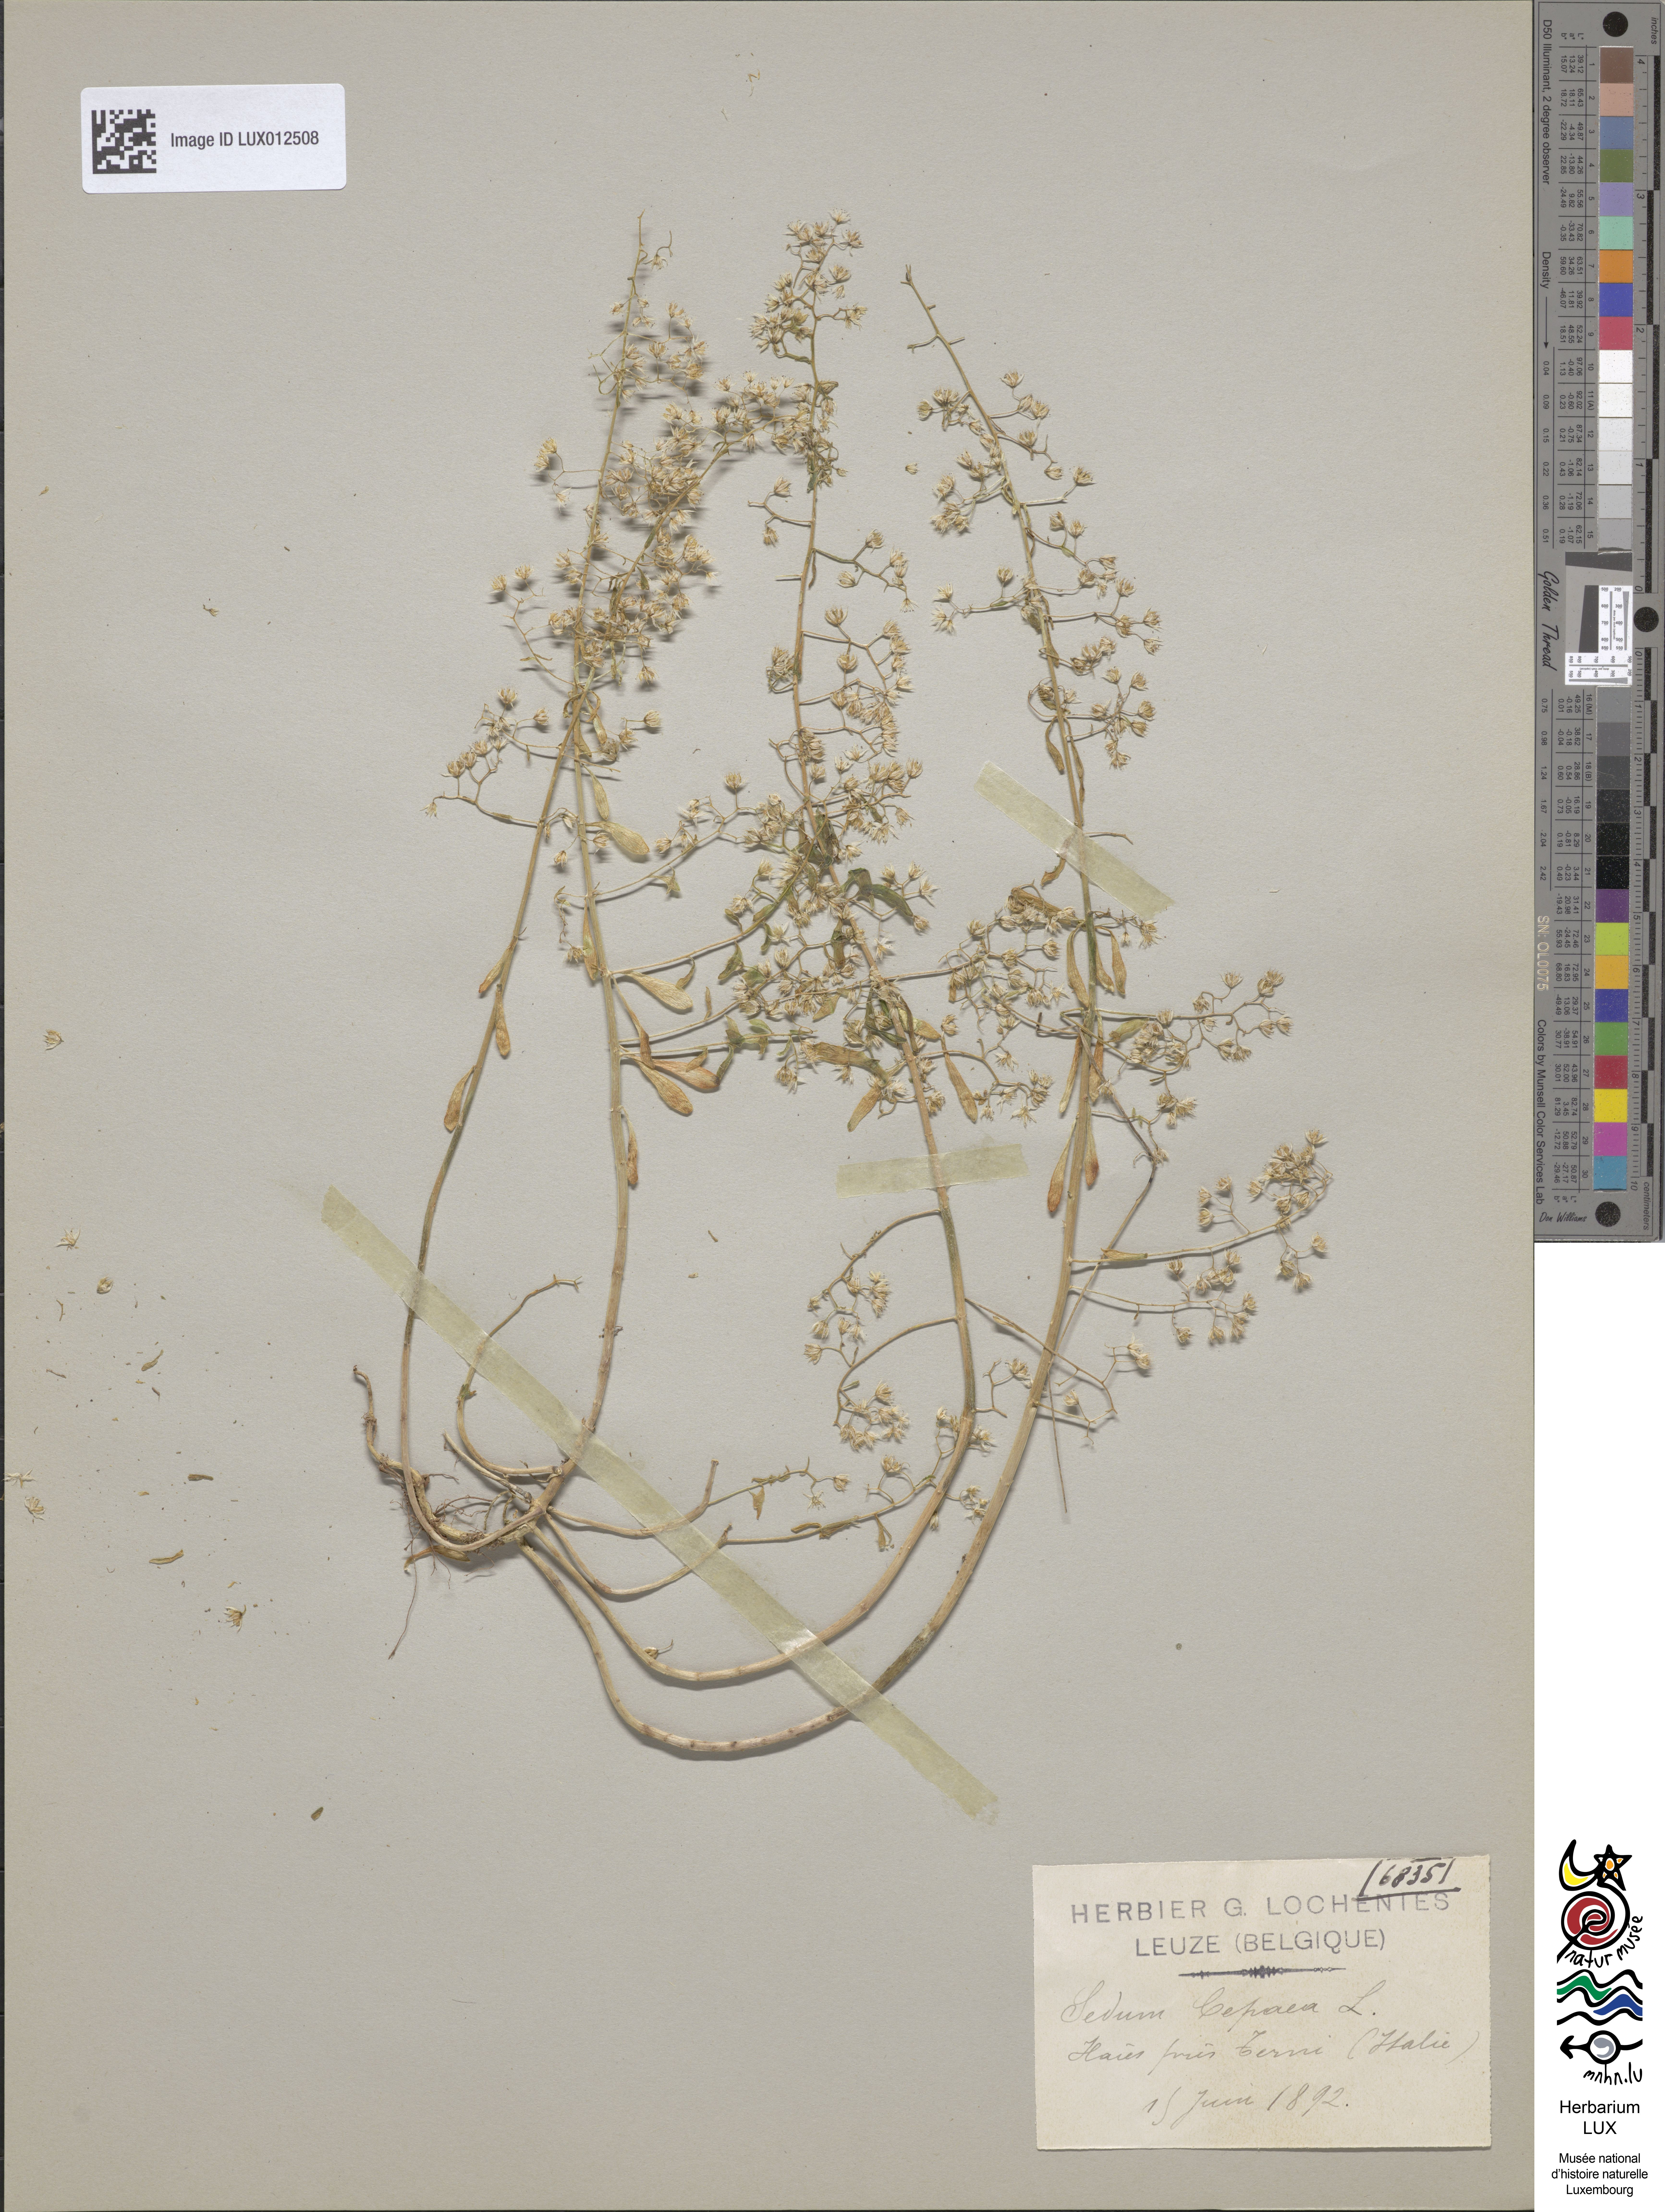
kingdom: Plantae
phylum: Tracheophyta
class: Magnoliopsida
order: Saxifragales
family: Crassulaceae
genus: Sedum
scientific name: Sedum cepaea
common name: Pink stonecrop
